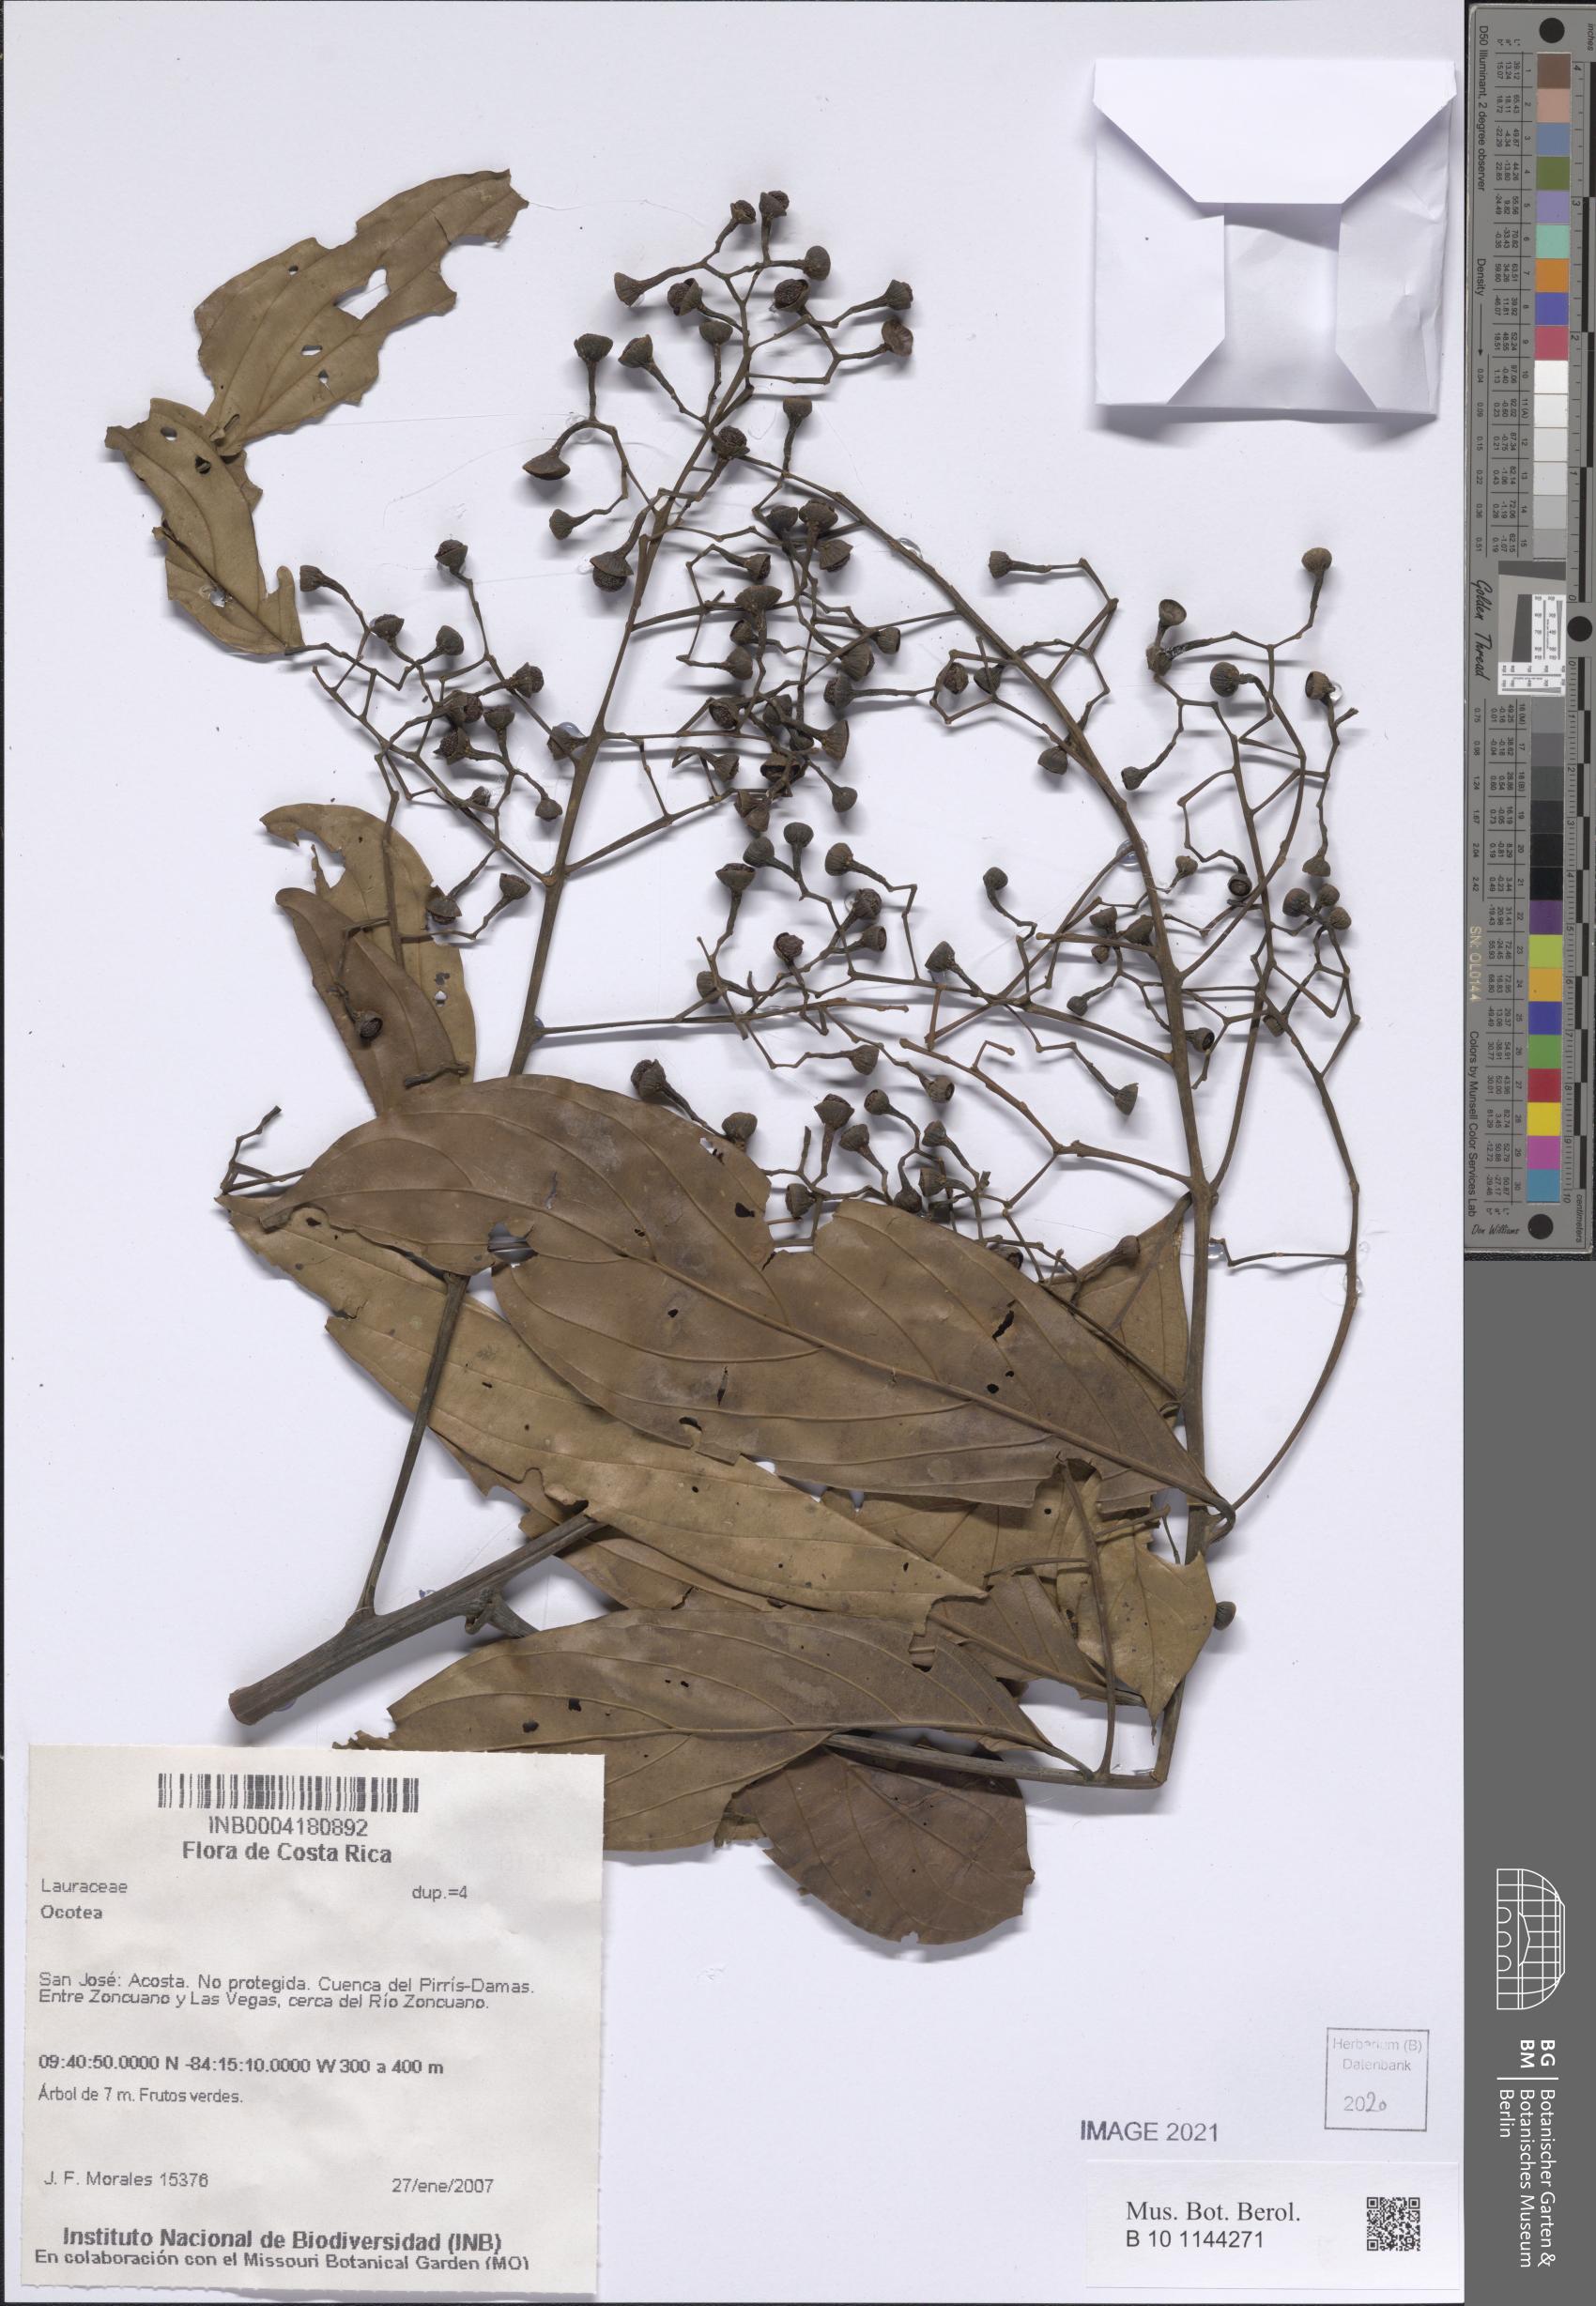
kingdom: Plantae
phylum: Tracheophyta
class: Magnoliopsida
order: Laurales
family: Lauraceae
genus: Ocotea
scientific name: Ocotea
